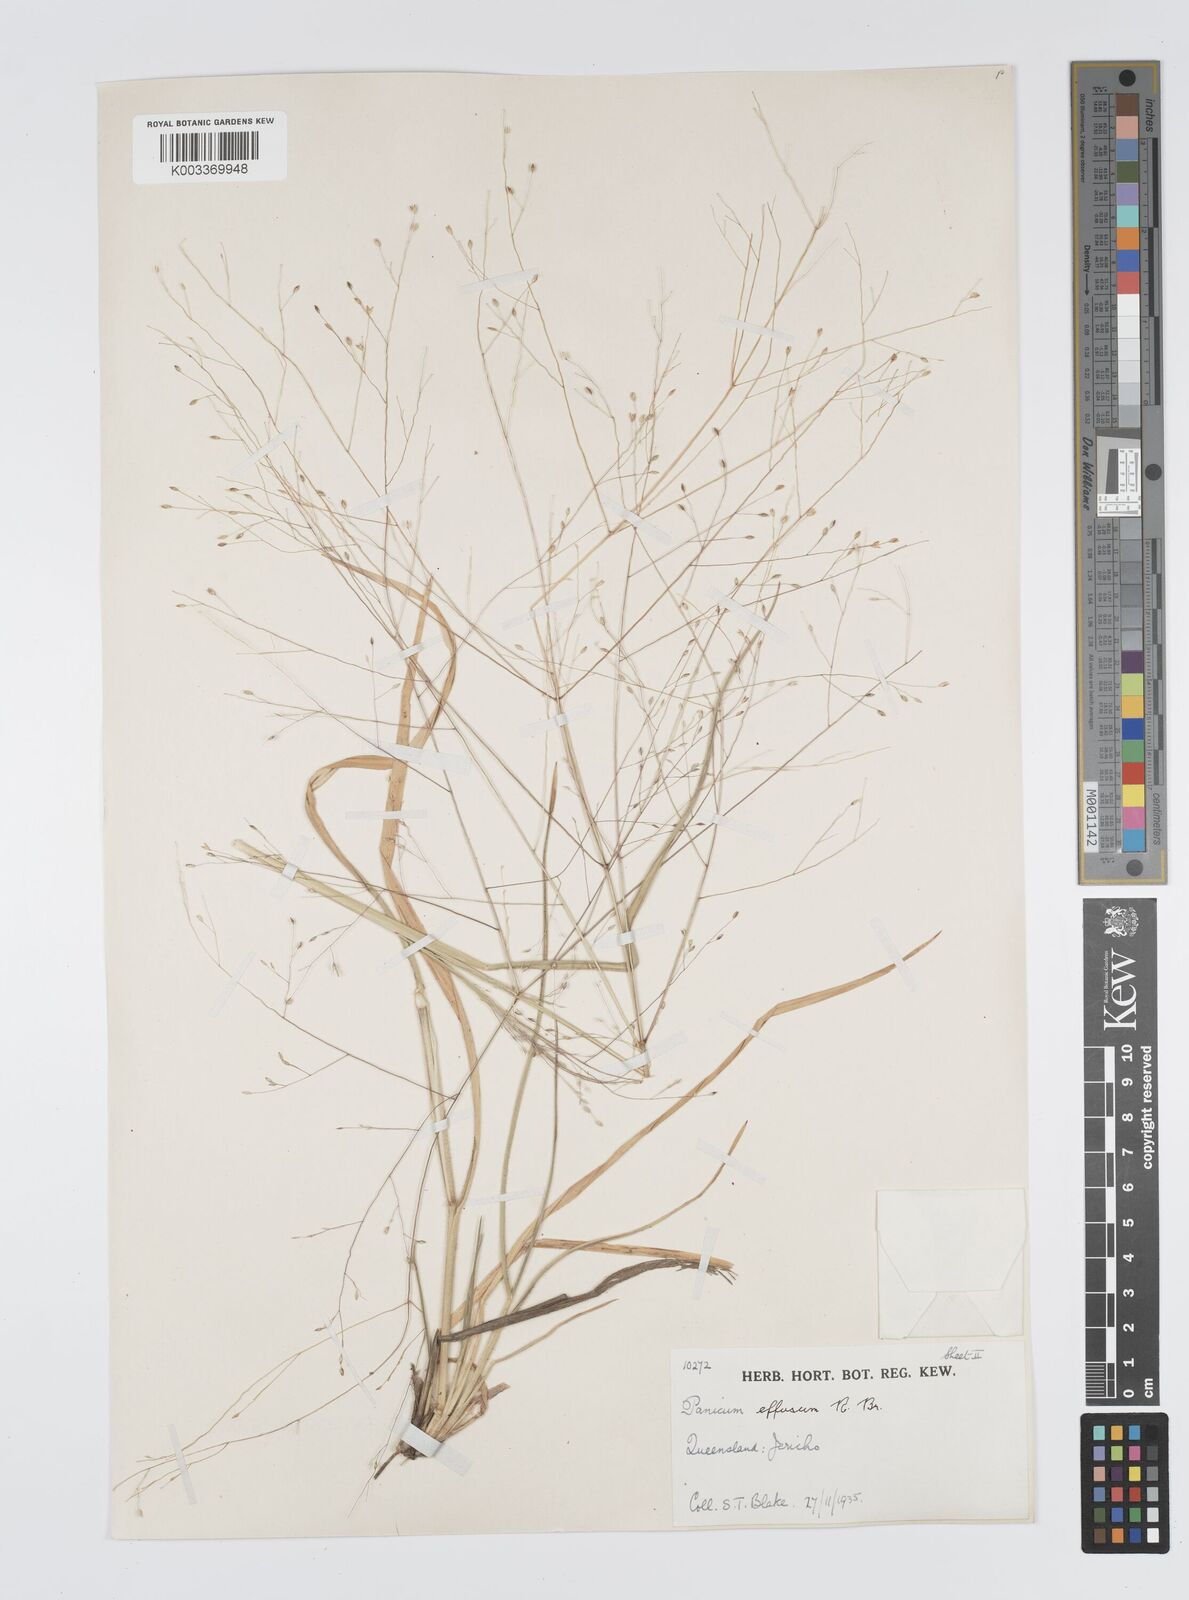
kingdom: Plantae
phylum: Tracheophyta
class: Liliopsida
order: Poales
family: Poaceae
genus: Panicum
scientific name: Panicum effusum
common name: Hairy panic grass
